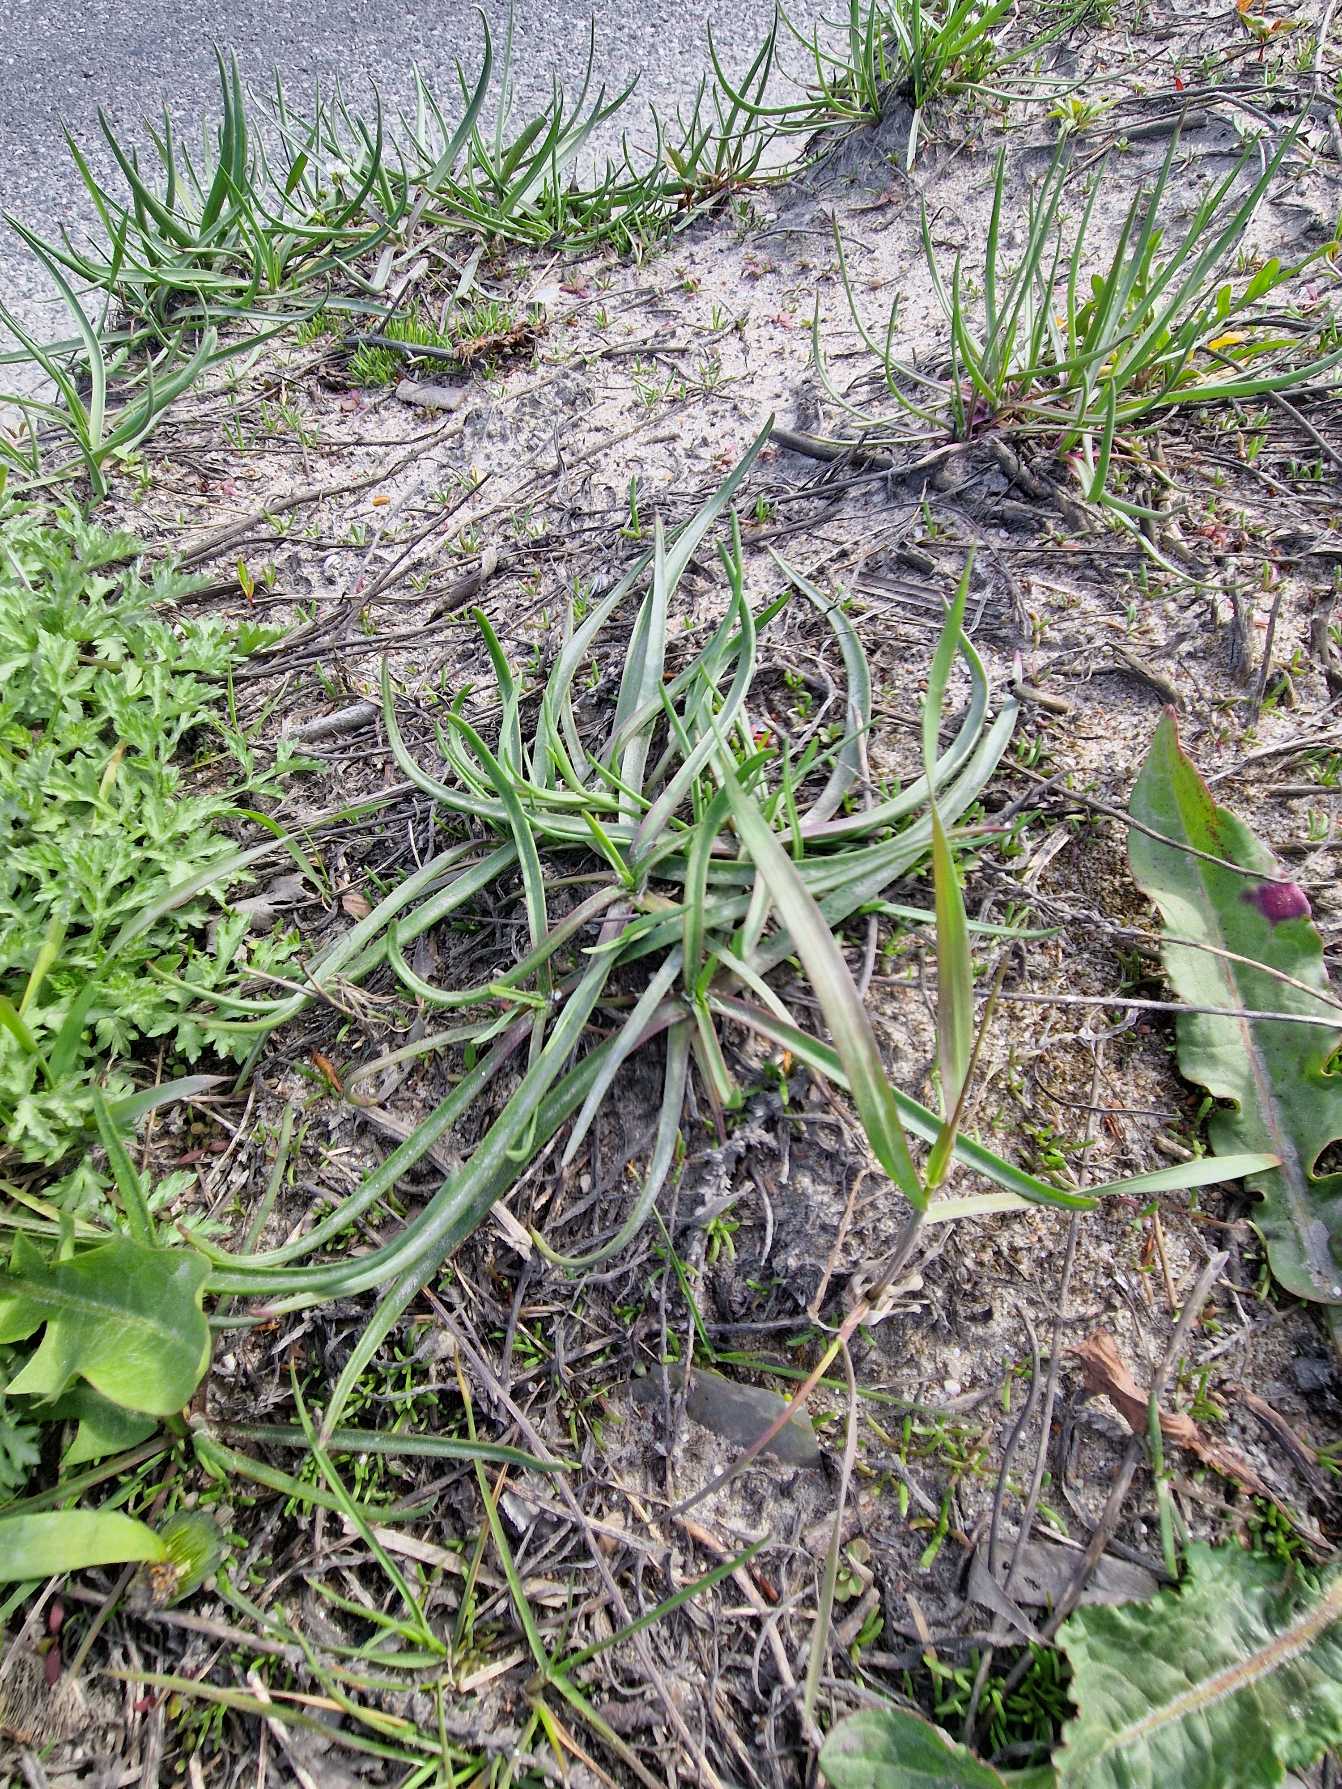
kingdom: Plantae
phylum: Tracheophyta
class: Magnoliopsida
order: Lamiales
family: Plantaginaceae
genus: Plantago
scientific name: Plantago maritima
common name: Strand-vejbred
